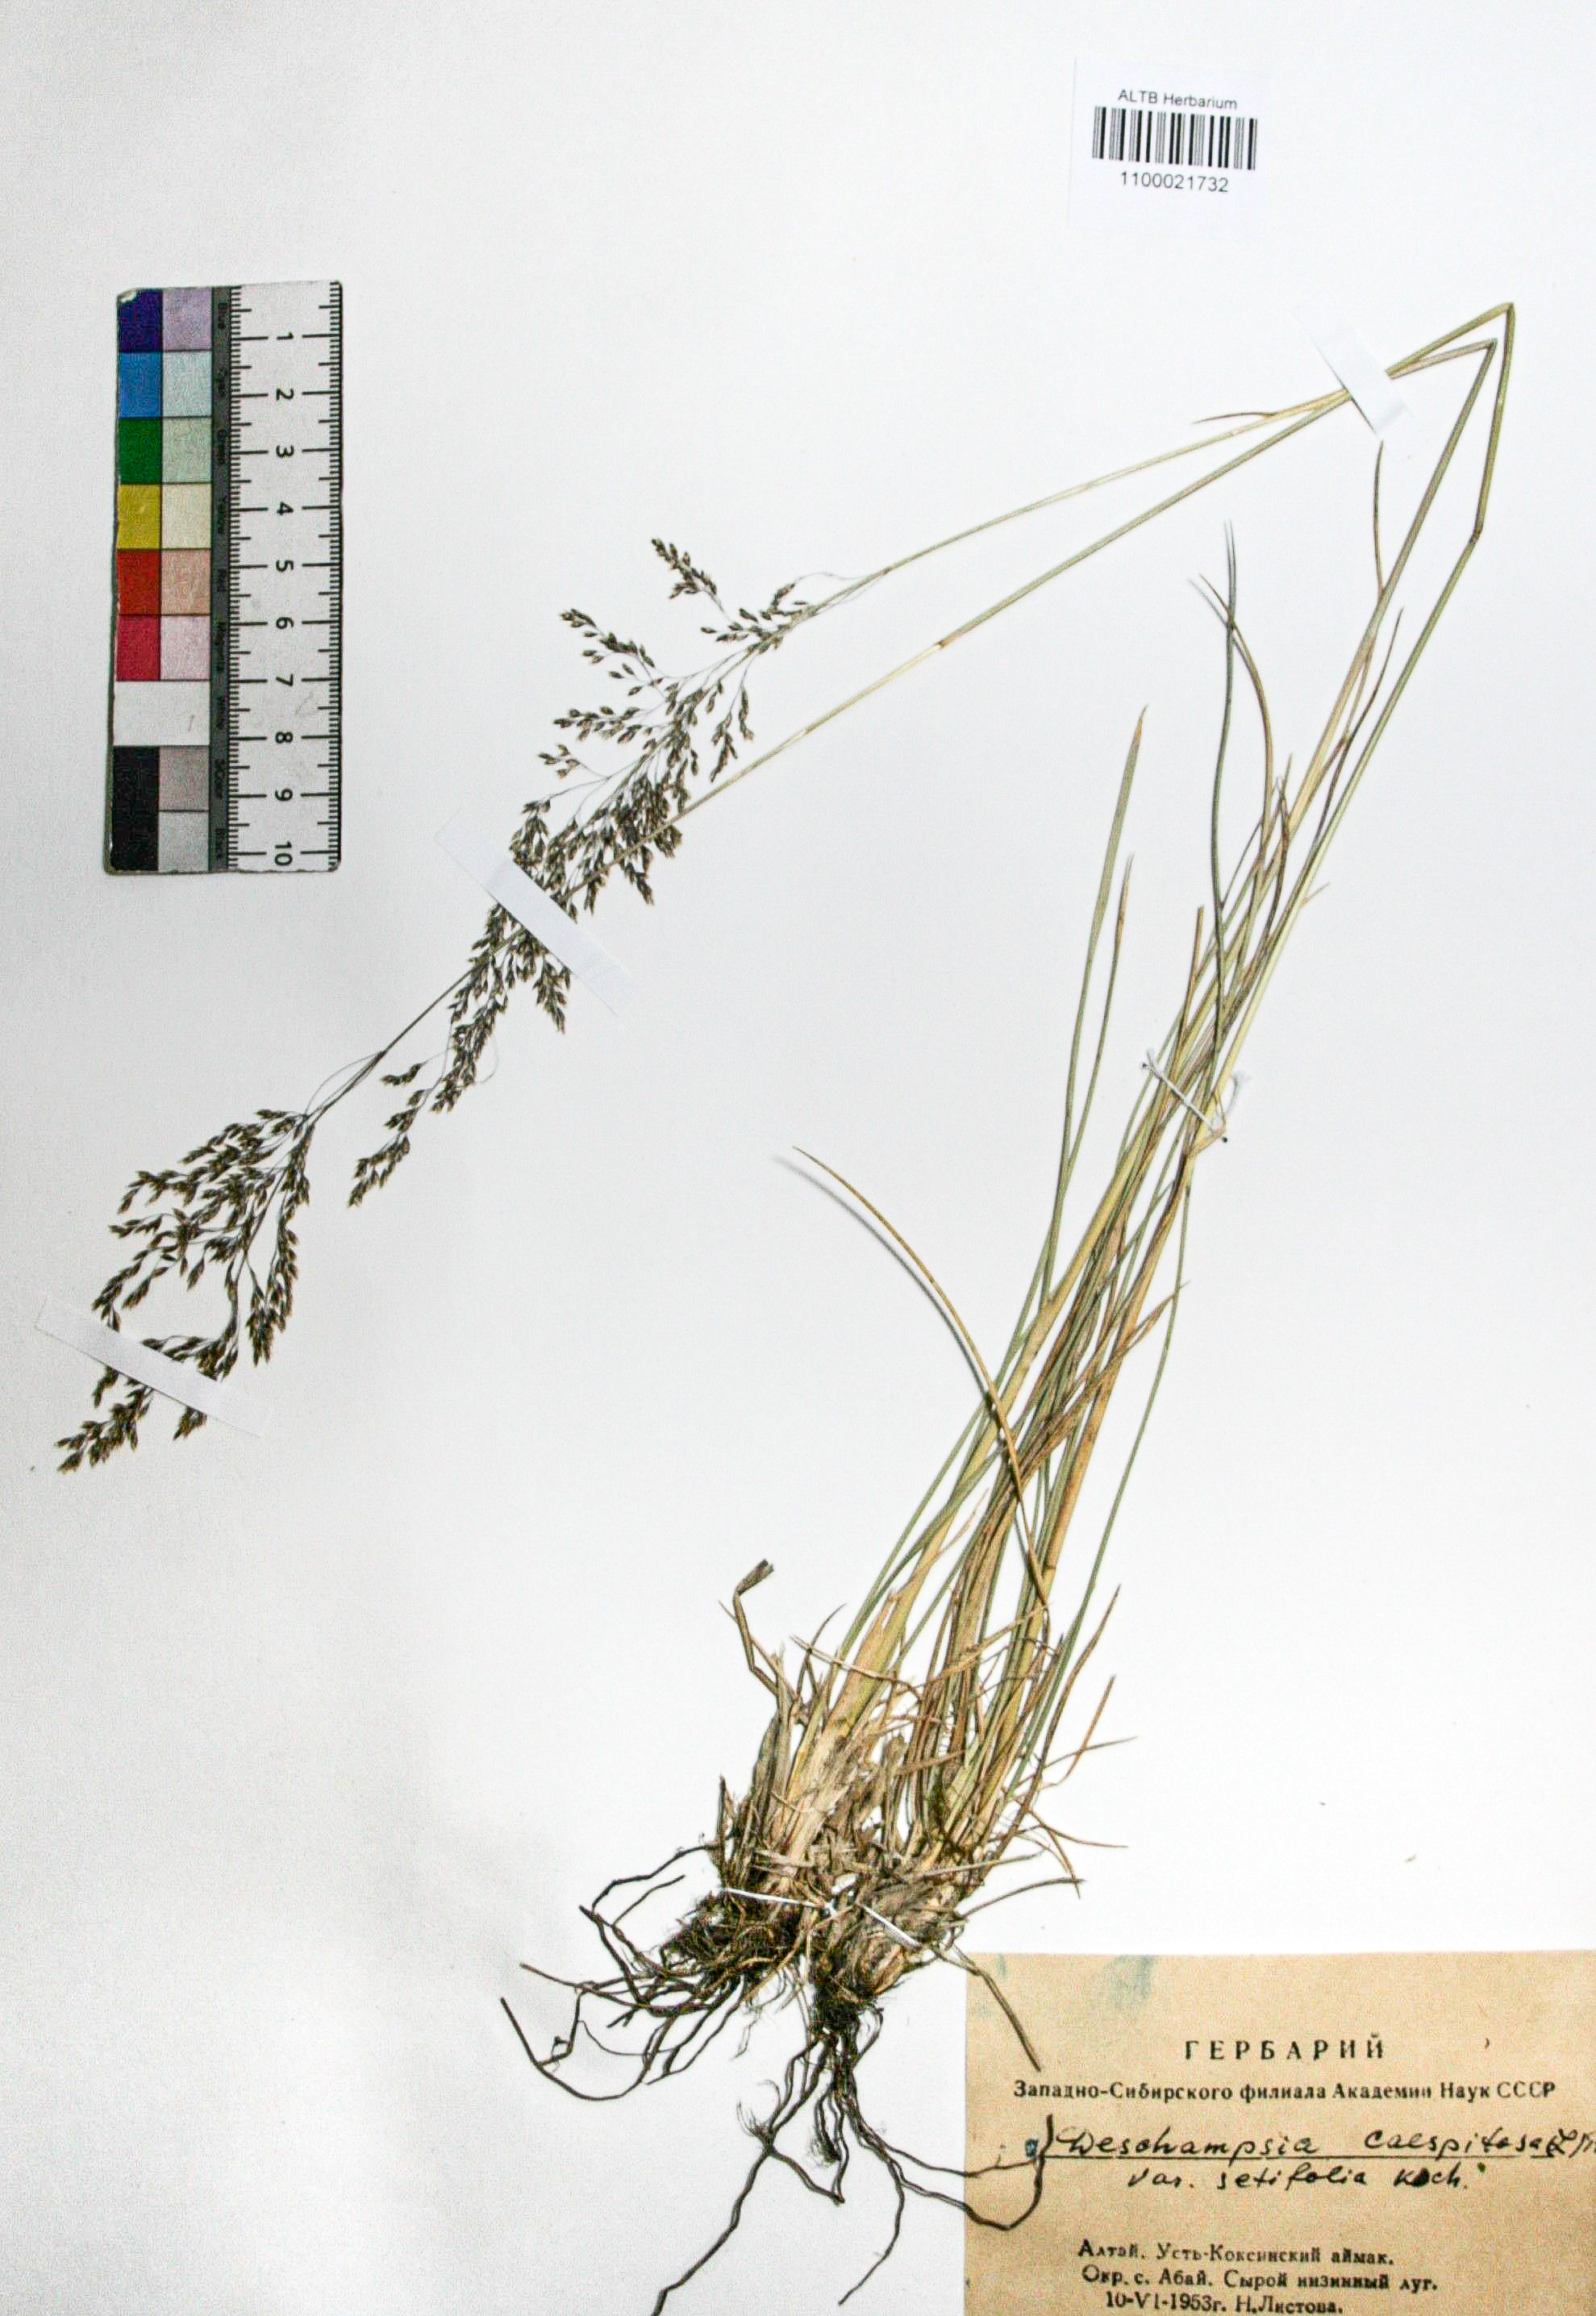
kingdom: Plantae
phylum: Tracheophyta
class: Liliopsida
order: Poales
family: Poaceae
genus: Deschampsia
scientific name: Deschampsia cespitosa
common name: Tufted hair-grass
